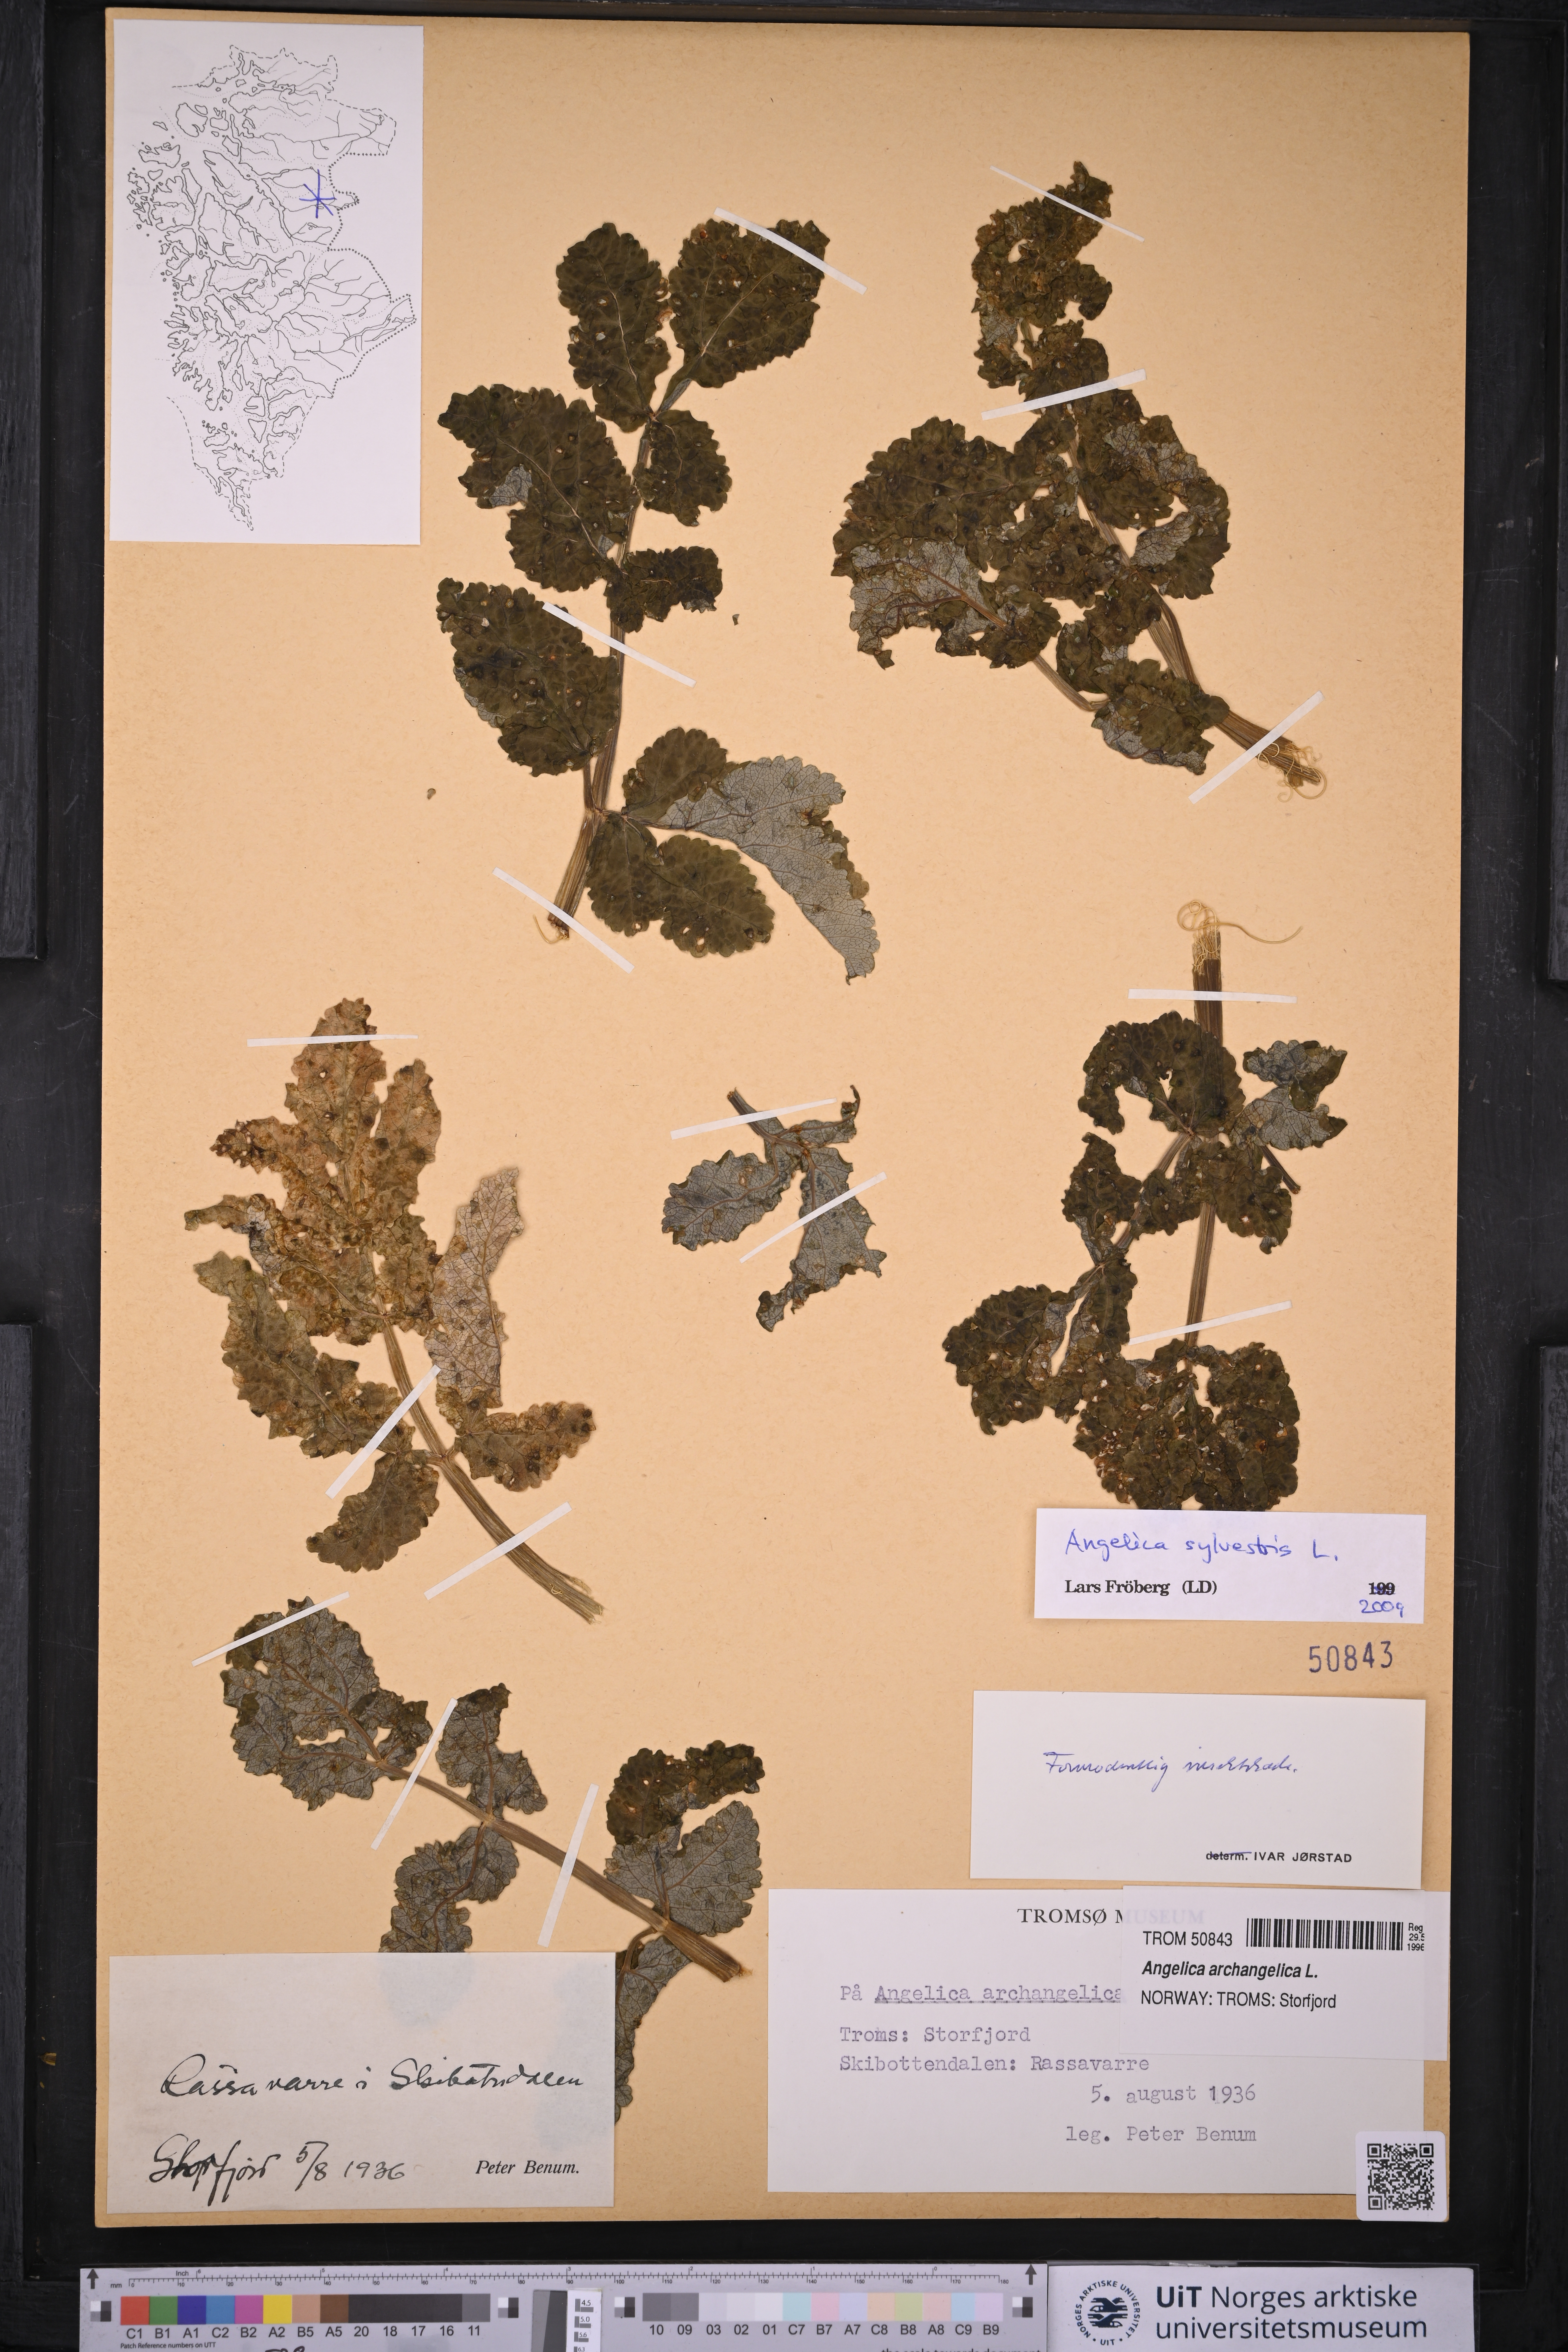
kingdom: Plantae
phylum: Tracheophyta
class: Magnoliopsida
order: Apiales
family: Apiaceae
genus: Angelica
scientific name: Angelica sylvestris
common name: Wild angelica
